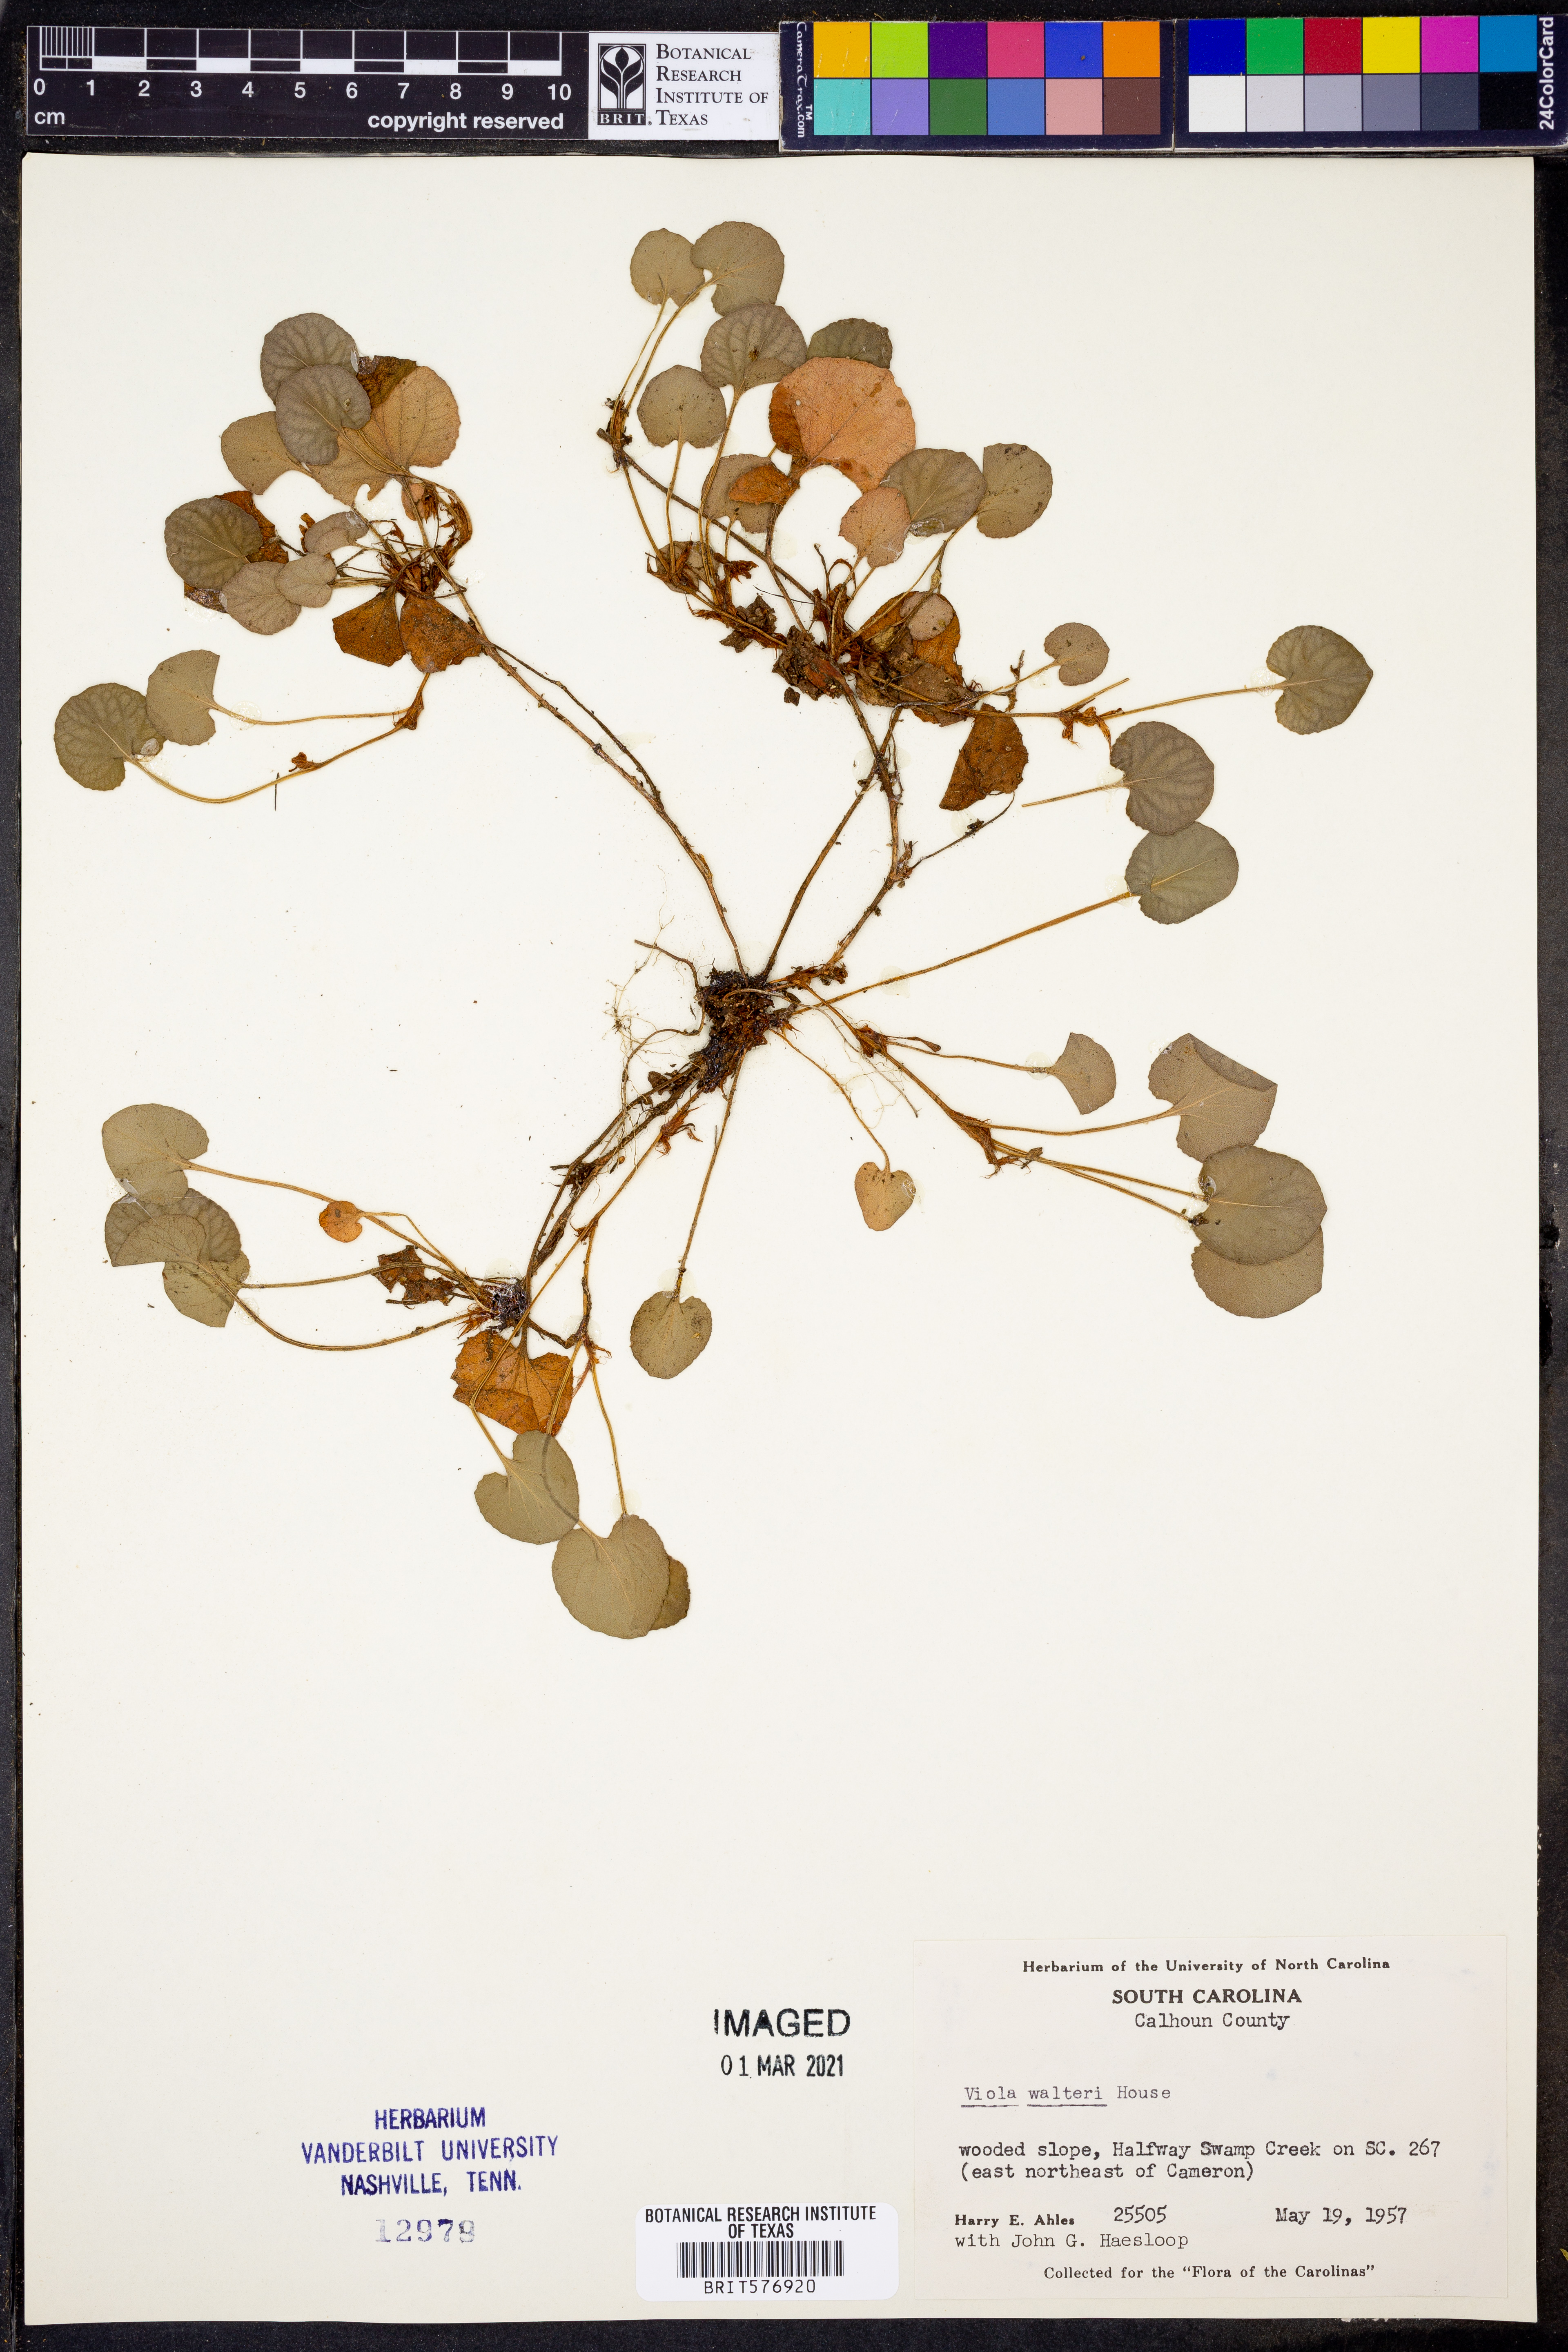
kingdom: Plantae
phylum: Tracheophyta
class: Magnoliopsida
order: Malpighiales
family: Violaceae
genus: Viola
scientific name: Viola walteri
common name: Prostrate southern violet
